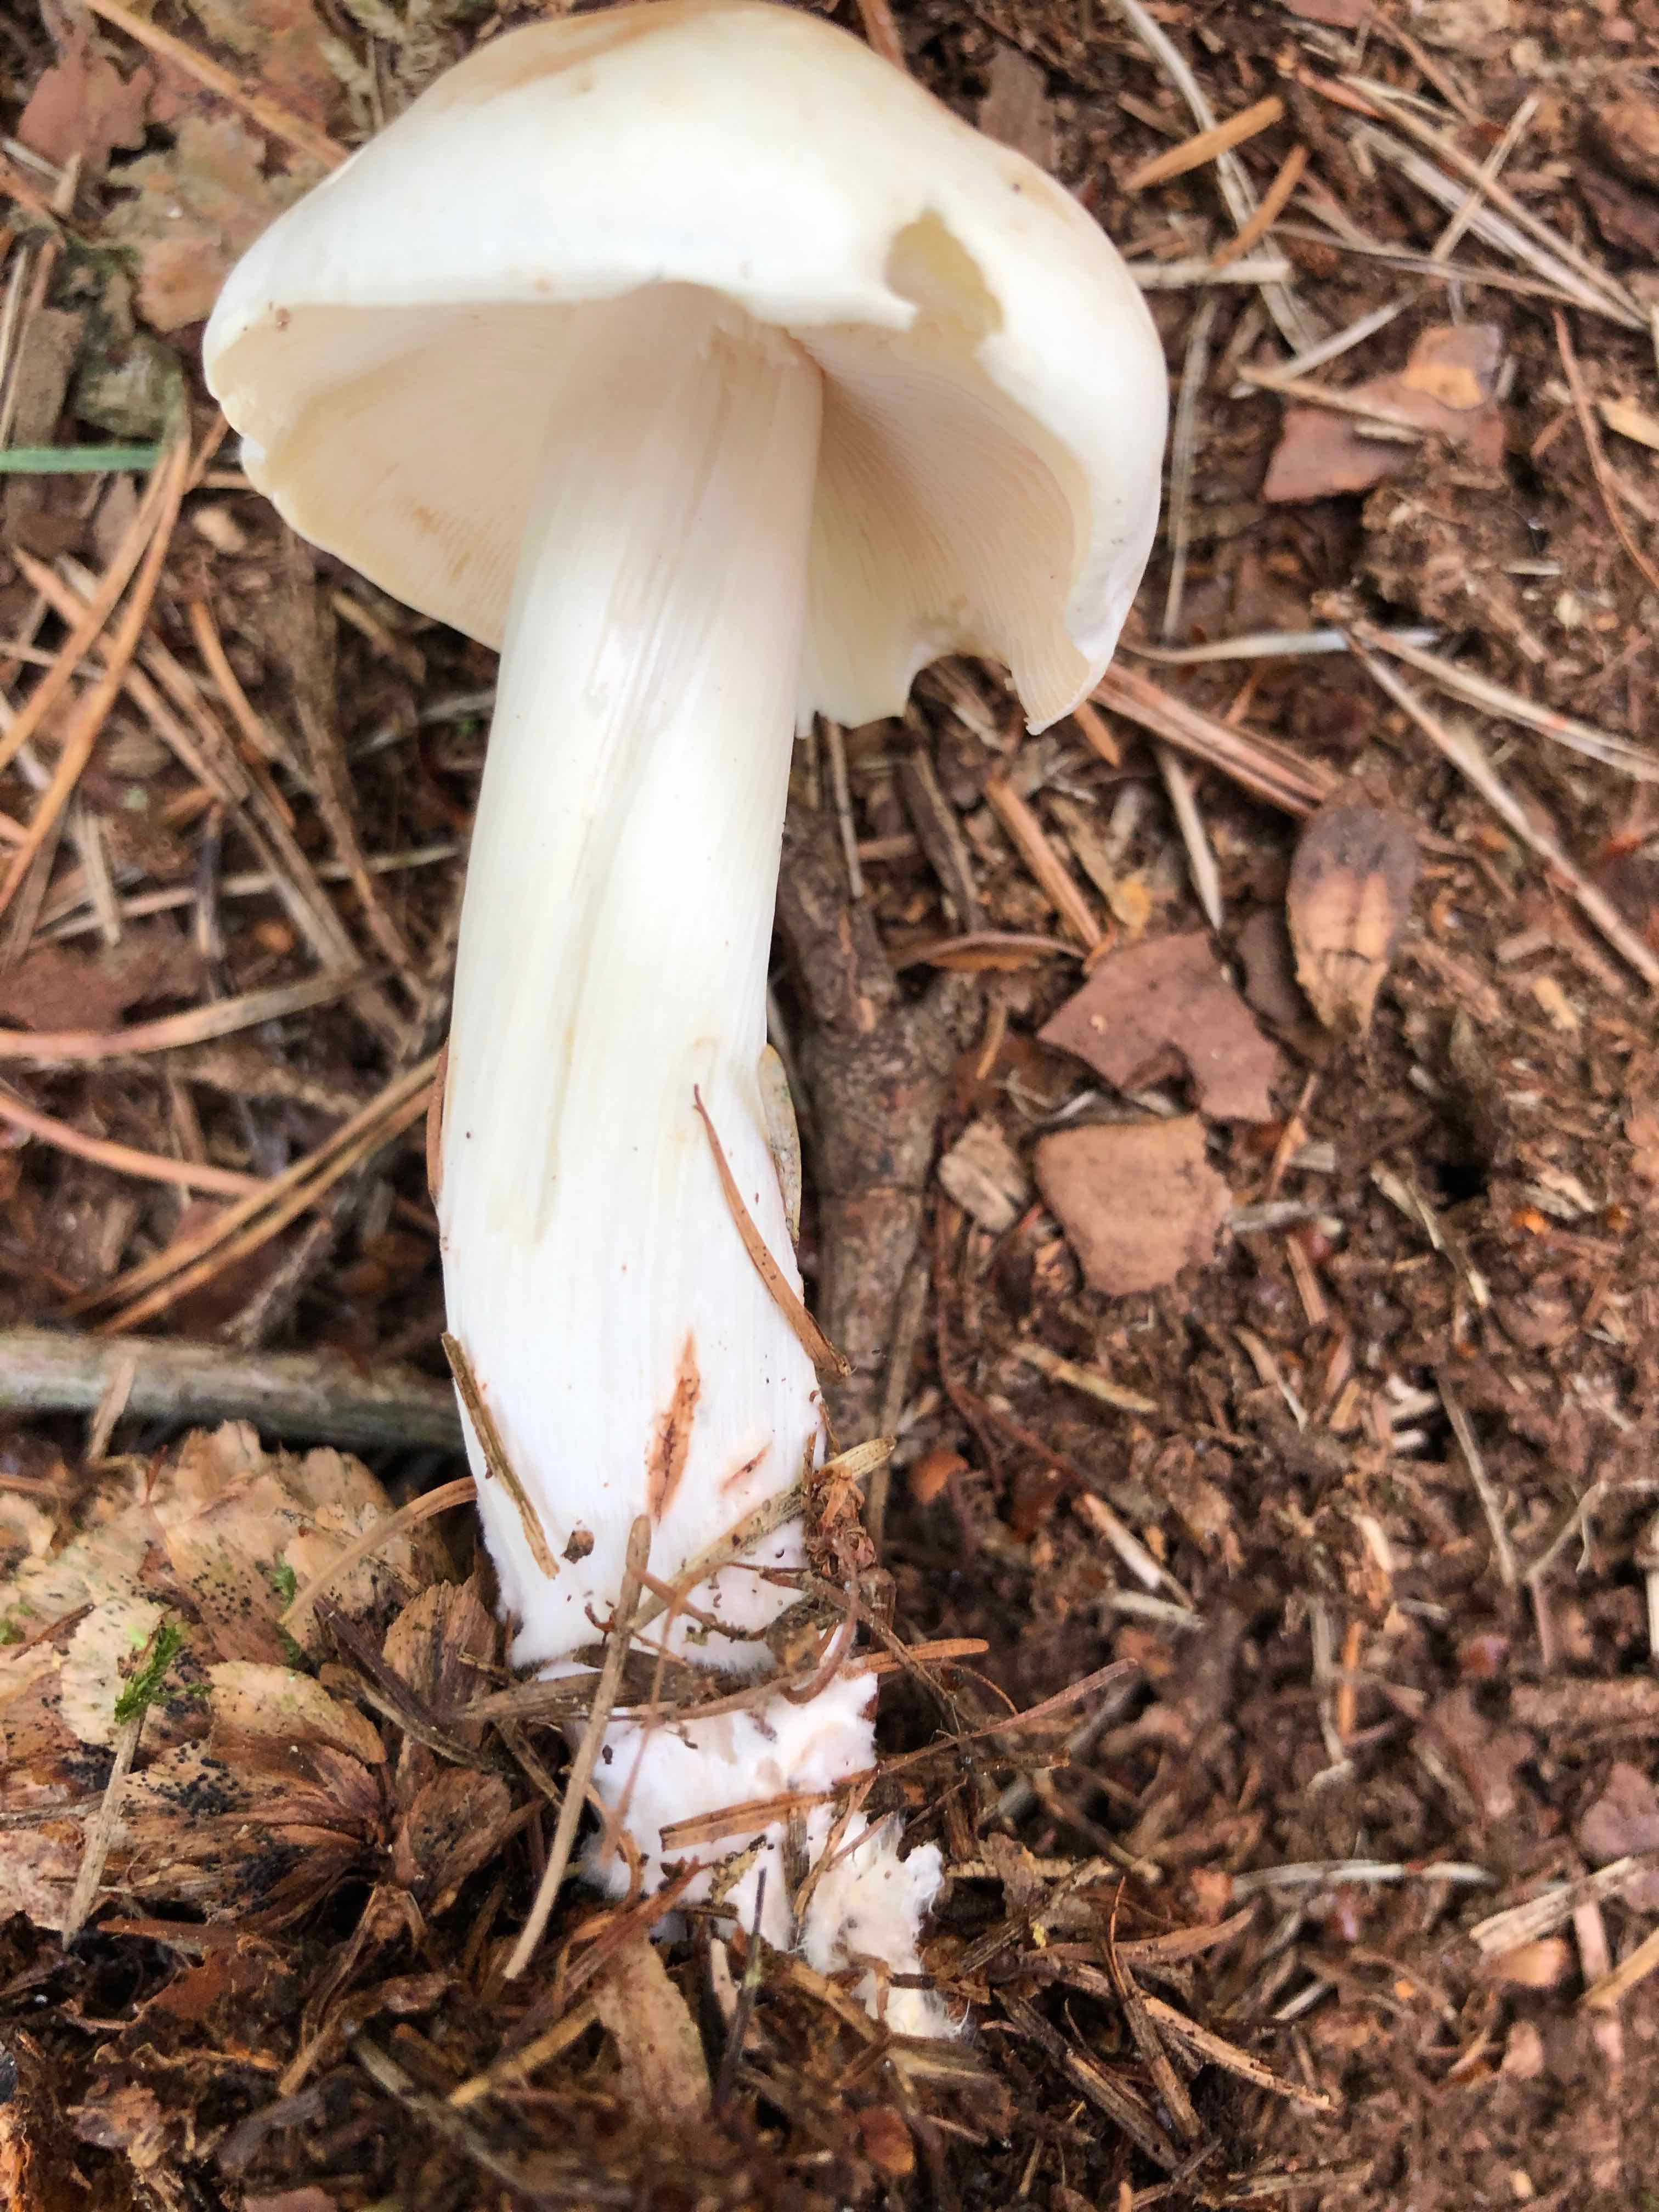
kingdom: Fungi
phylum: Basidiomycota
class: Agaricomycetes
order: Agaricales
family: Omphalotaceae
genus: Rhodocollybia
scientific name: Rhodocollybia maculata
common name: plettet fladhat
